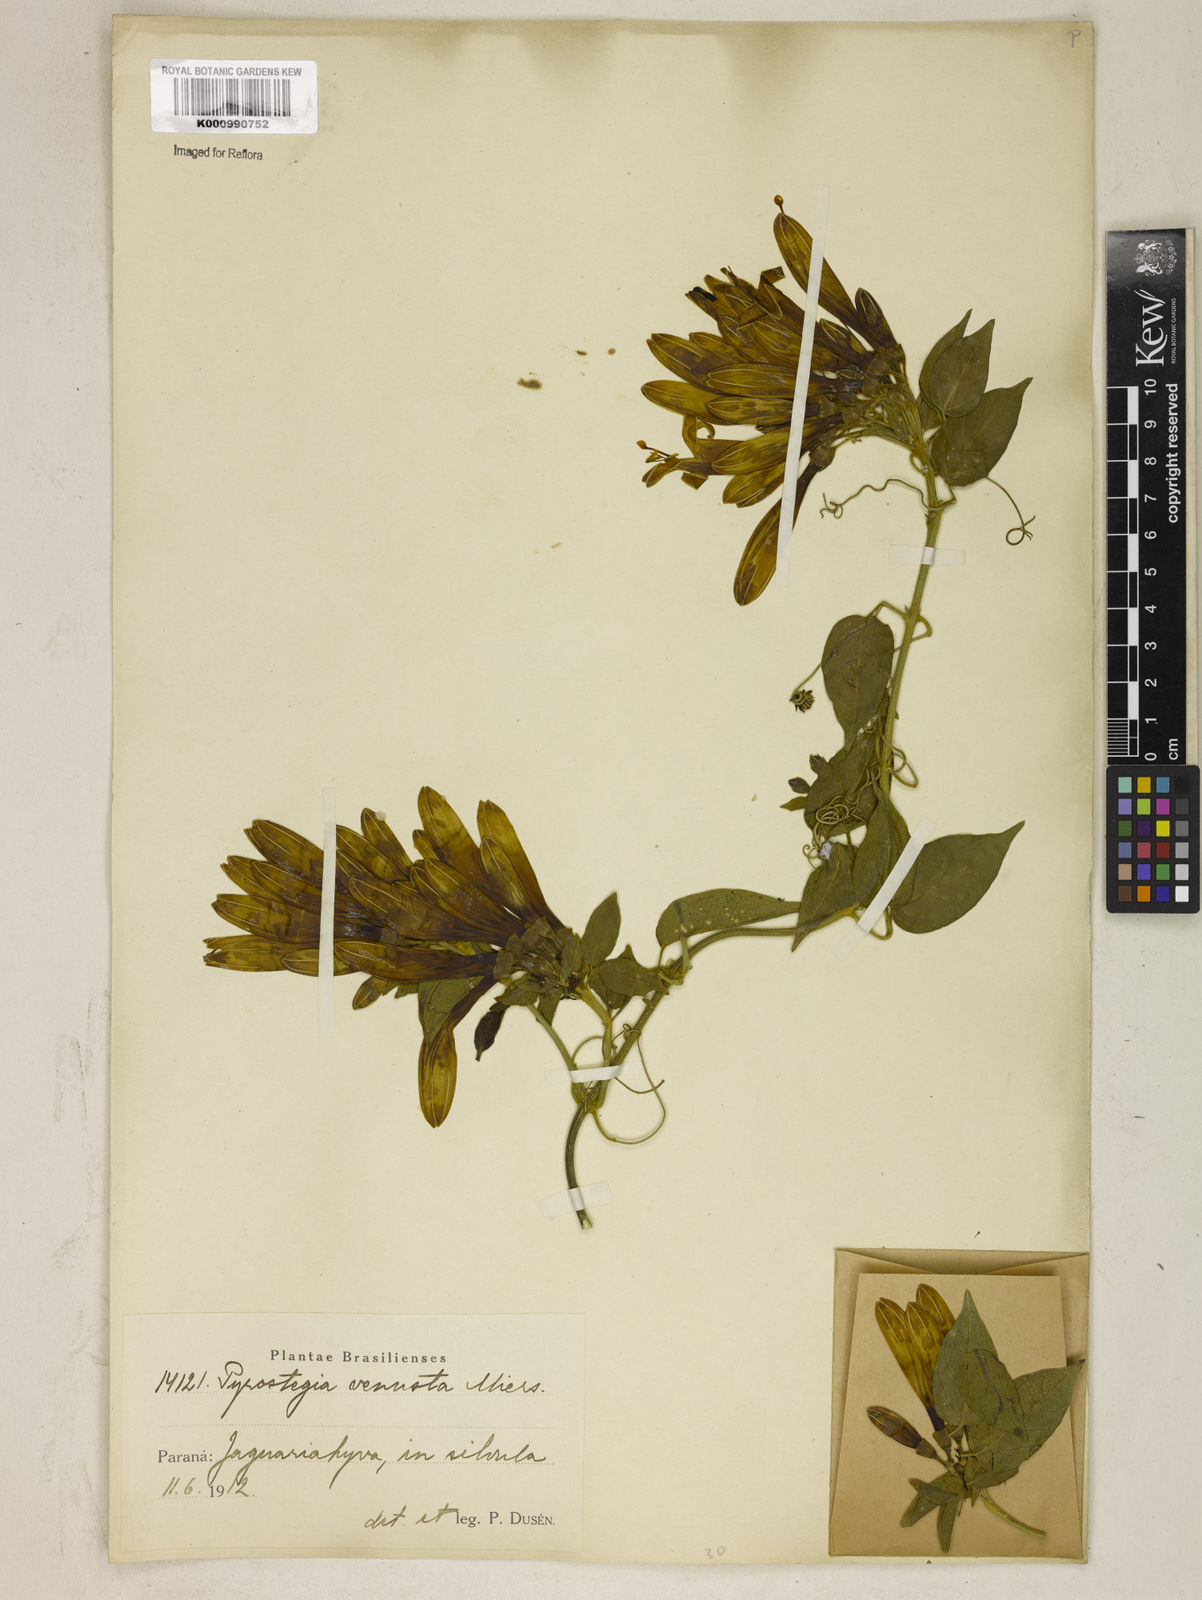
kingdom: Plantae
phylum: Tracheophyta
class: Magnoliopsida
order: Lamiales
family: Bignoniaceae
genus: Pyrostegia
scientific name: Pyrostegia venusta
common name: Flamevine
